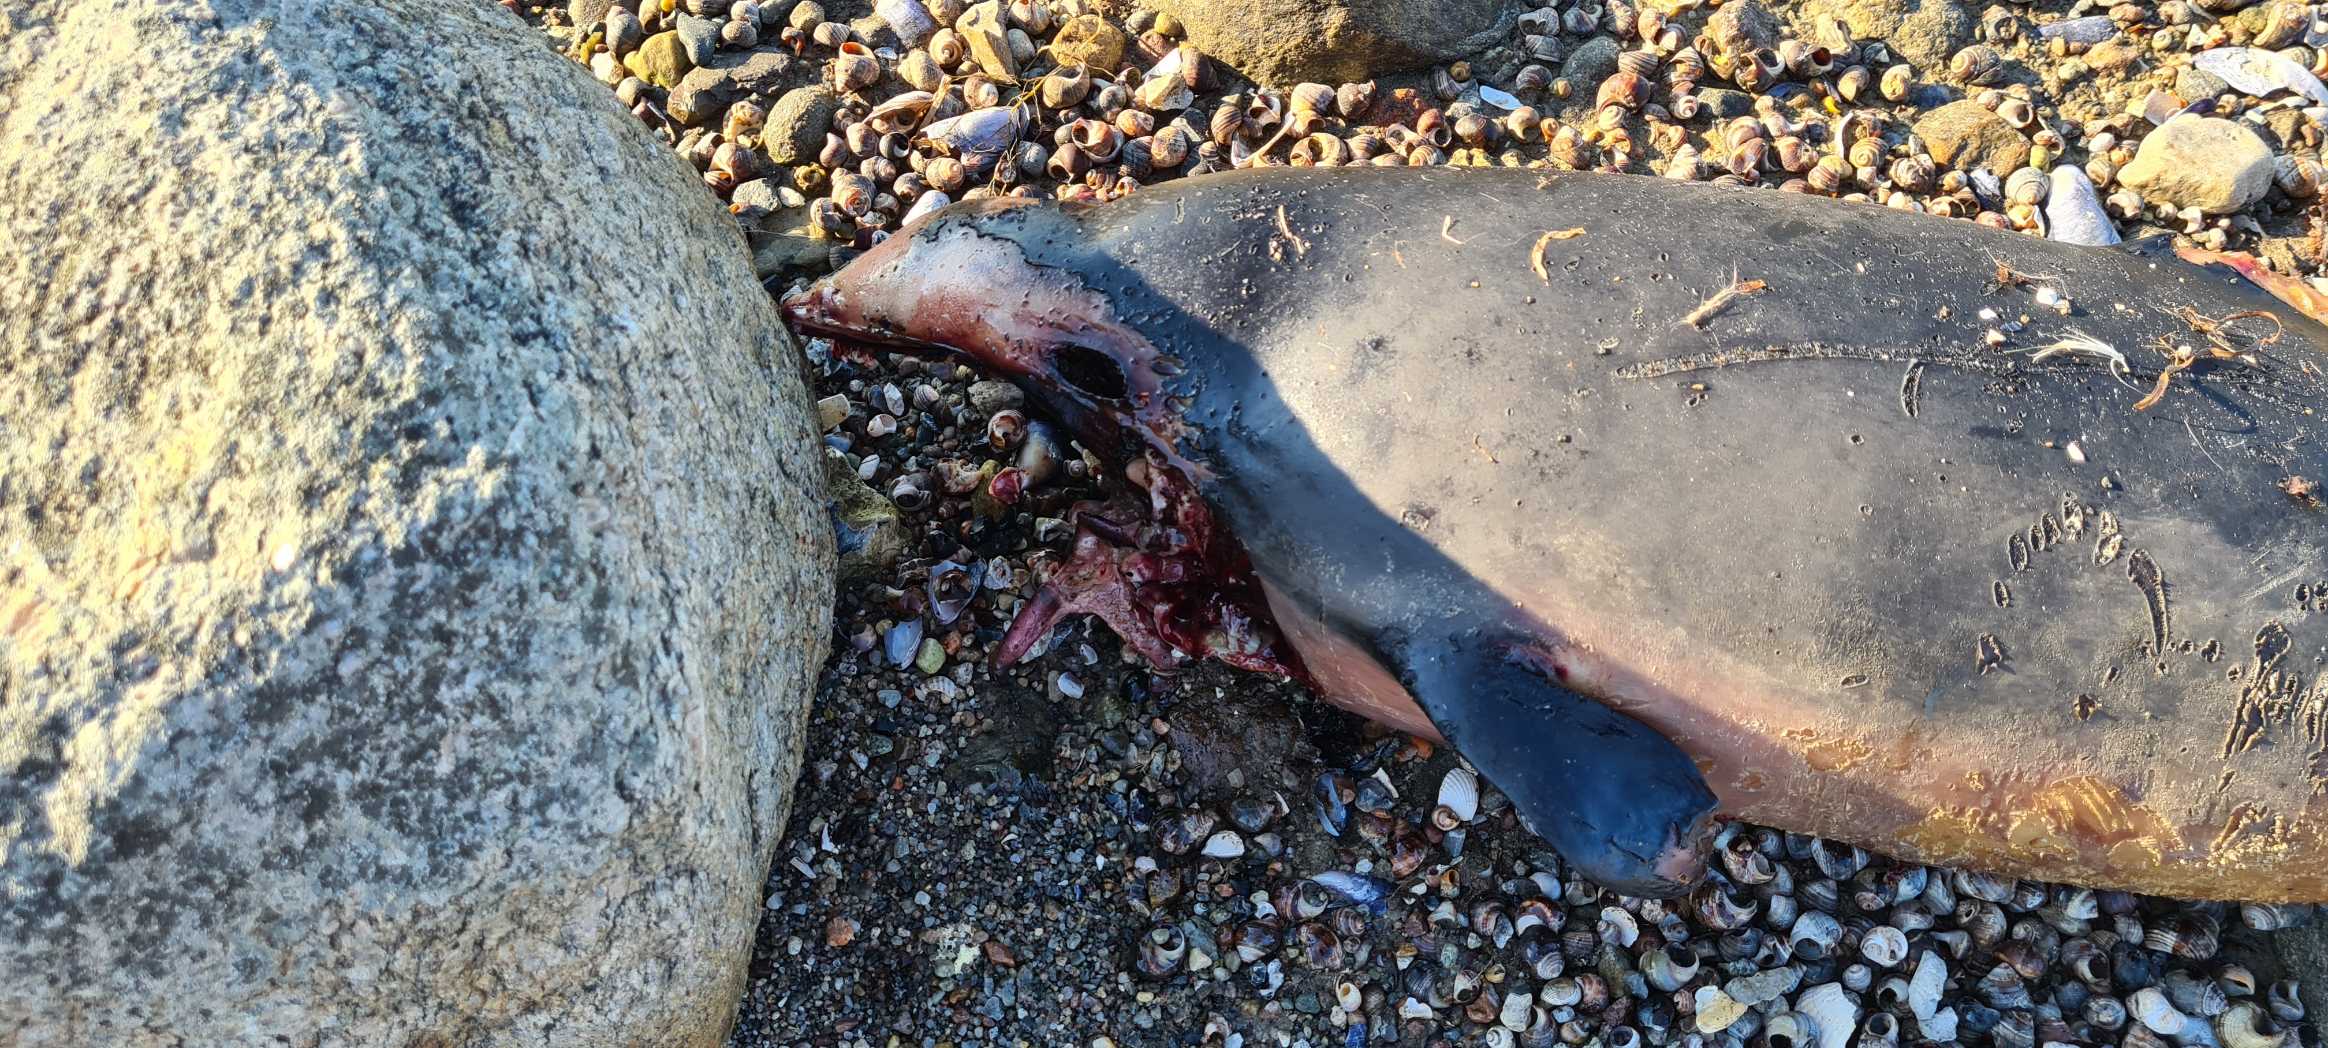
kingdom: Animalia
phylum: Chordata
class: Mammalia
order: Cetacea
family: Phocoenidae
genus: Phocoena
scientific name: Phocoena phocoena
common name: Marsvin
